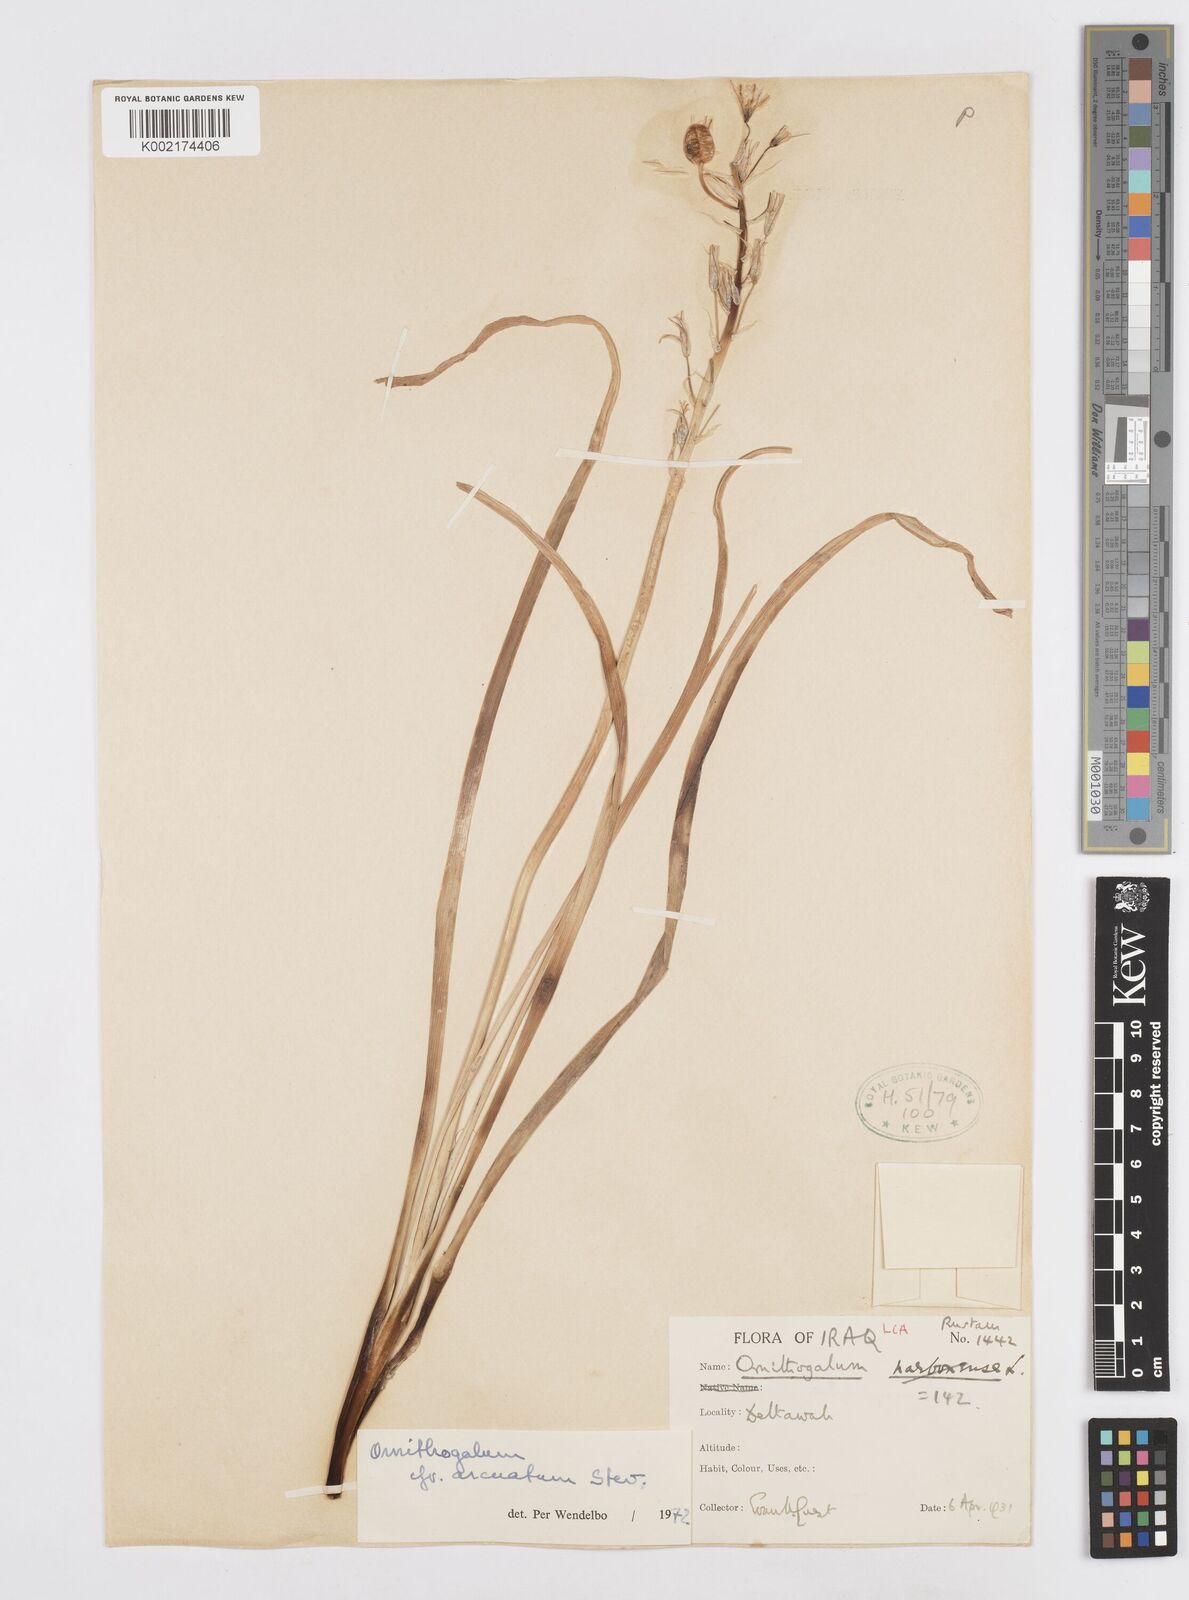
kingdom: Plantae
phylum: Tracheophyta
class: Liliopsida
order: Asparagales
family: Asparagaceae
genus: Ornithogalum
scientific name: Ornithogalum narbonense
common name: Bath-asparagus
